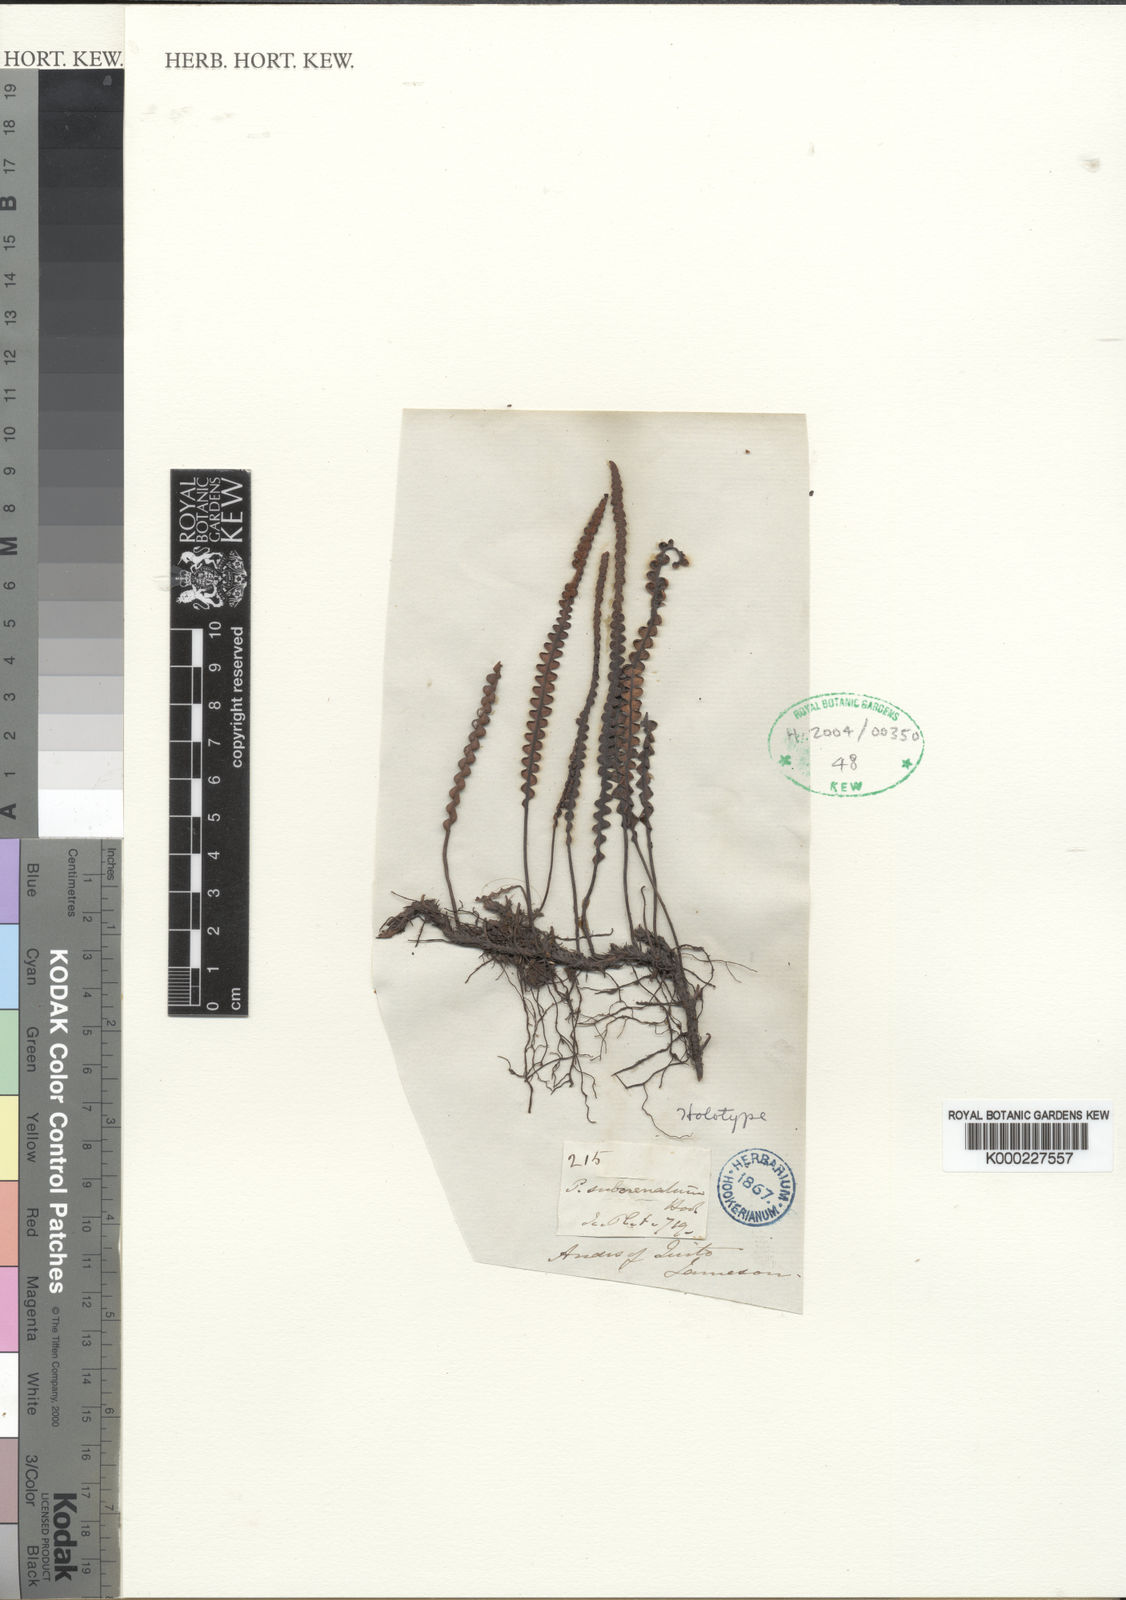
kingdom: Plantae
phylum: Tracheophyta
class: Polypodiopsida
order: Polypodiales
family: Polypodiaceae
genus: Melpomene
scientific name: Melpomene moniliformis
